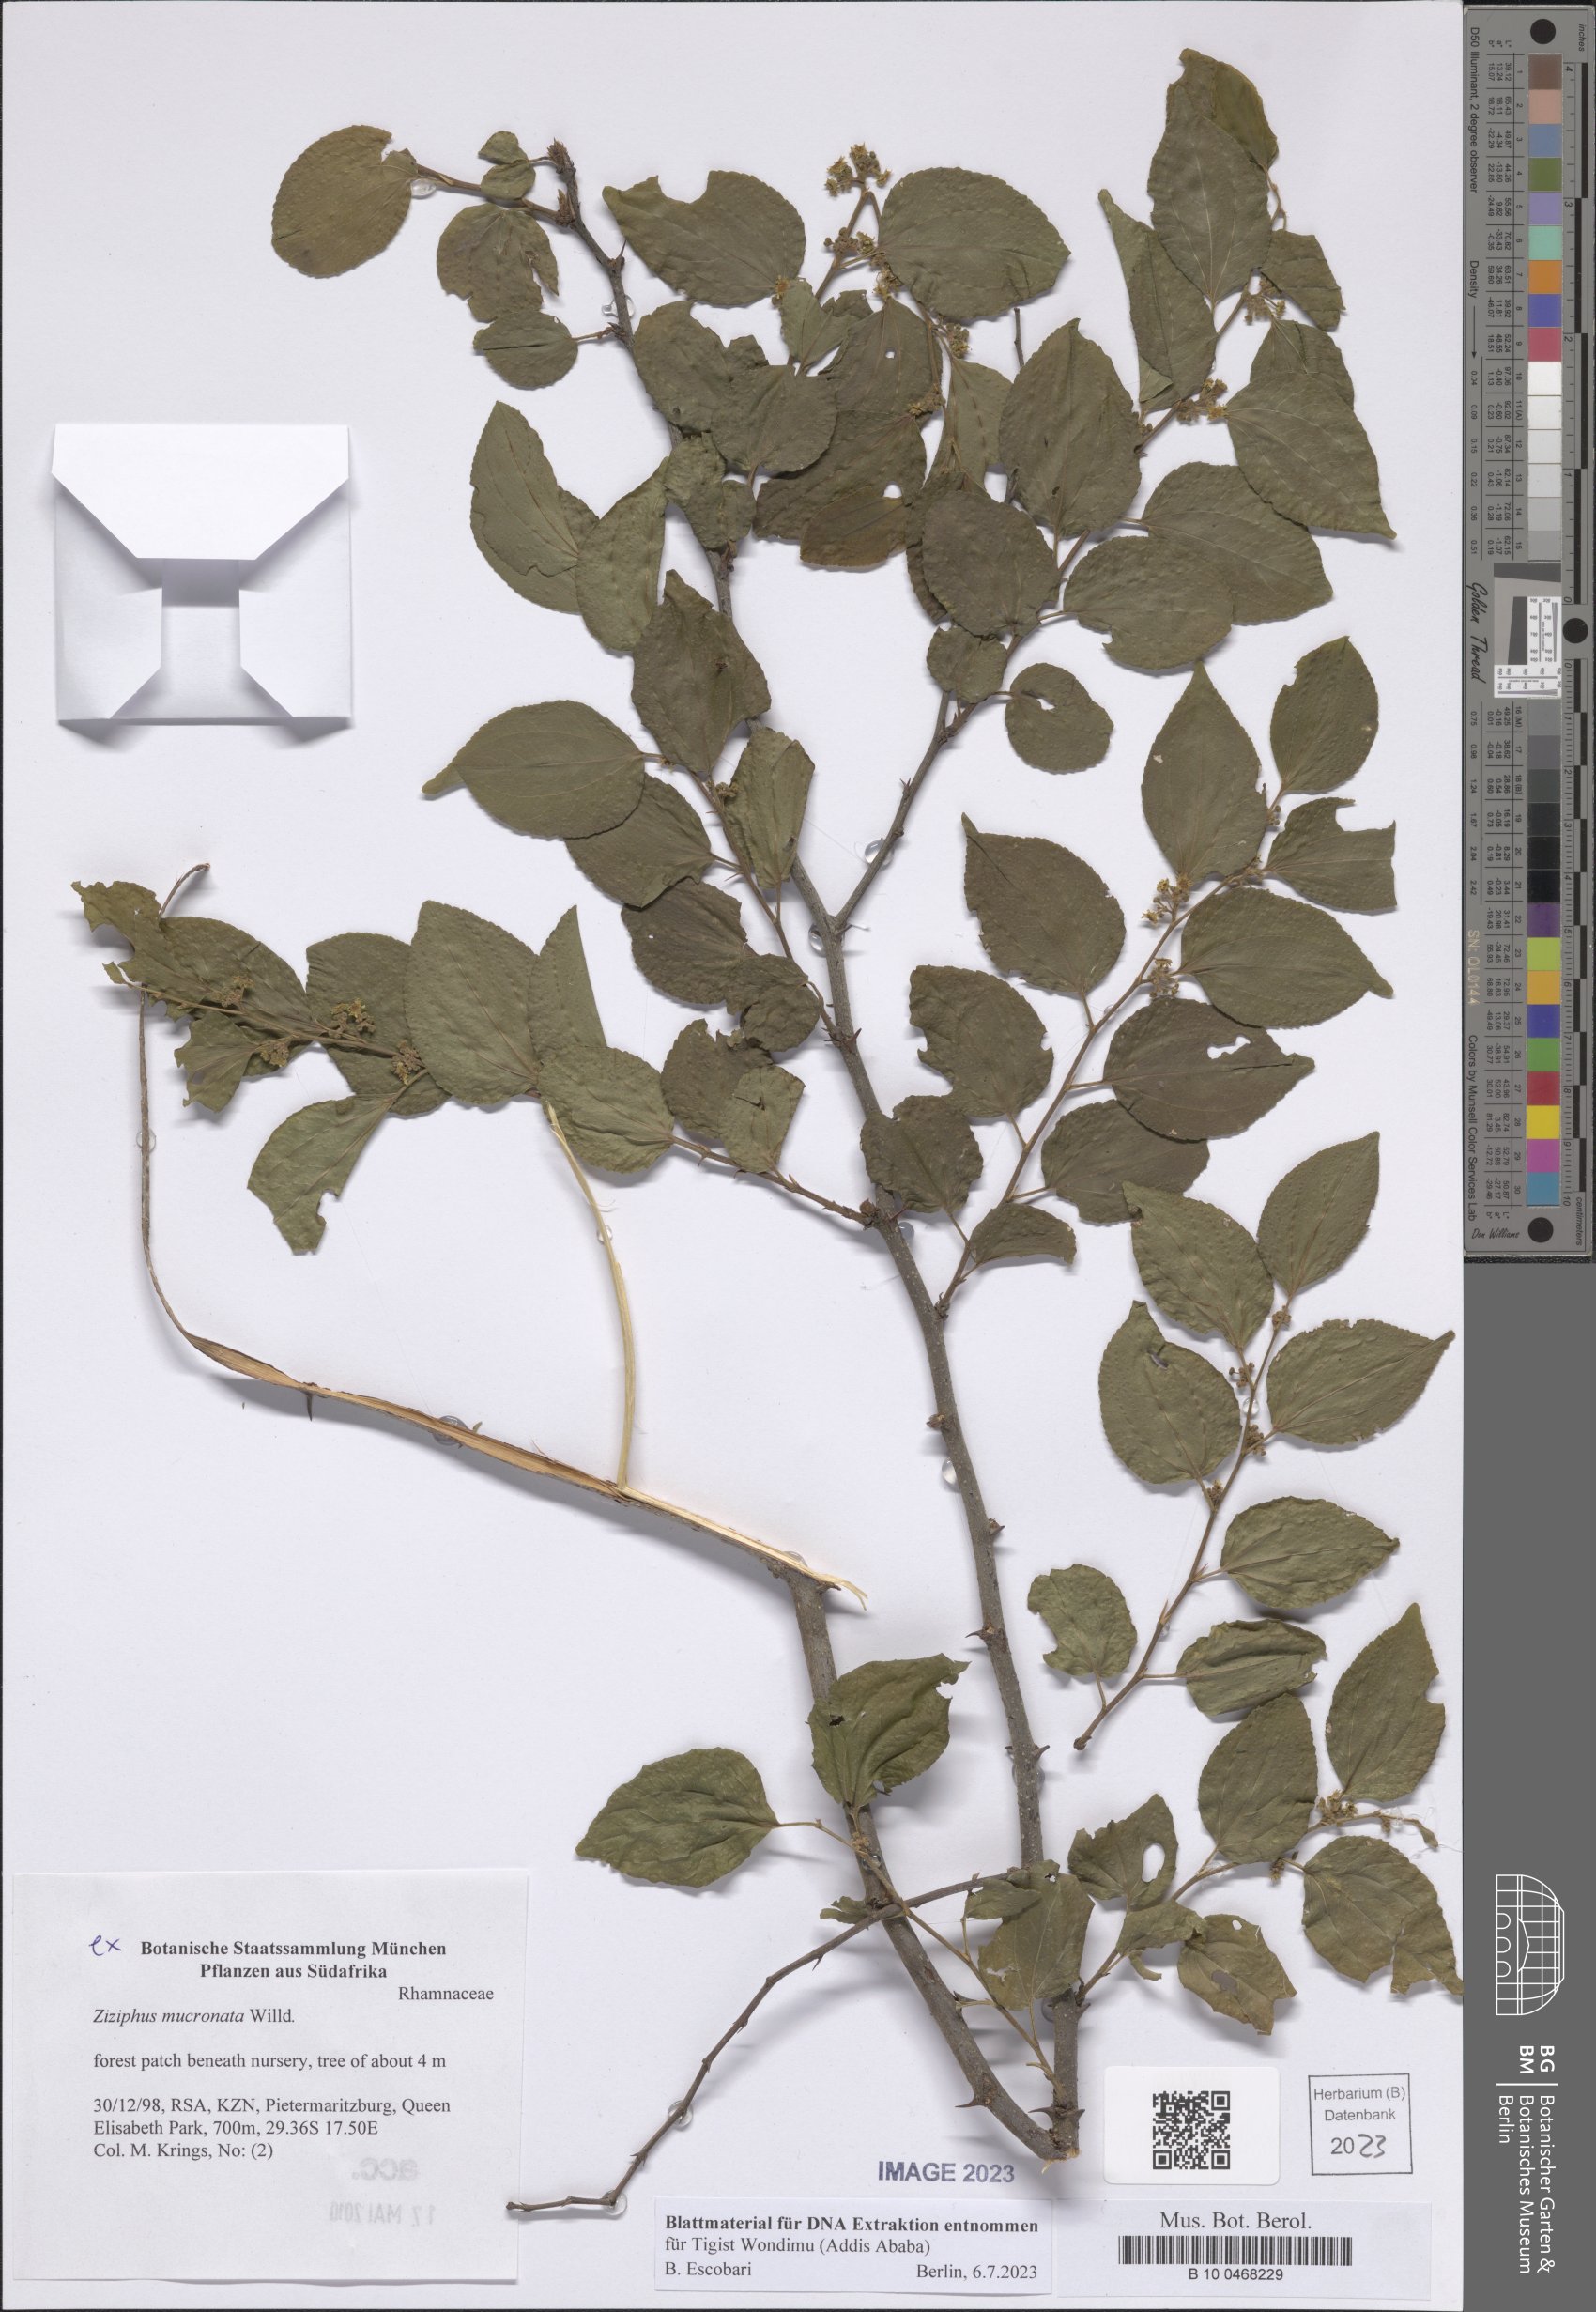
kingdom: Plantae
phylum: Tracheophyta
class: Magnoliopsida
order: Rosales
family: Rhamnaceae
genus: Ziziphus
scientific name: Ziziphus mucronata
